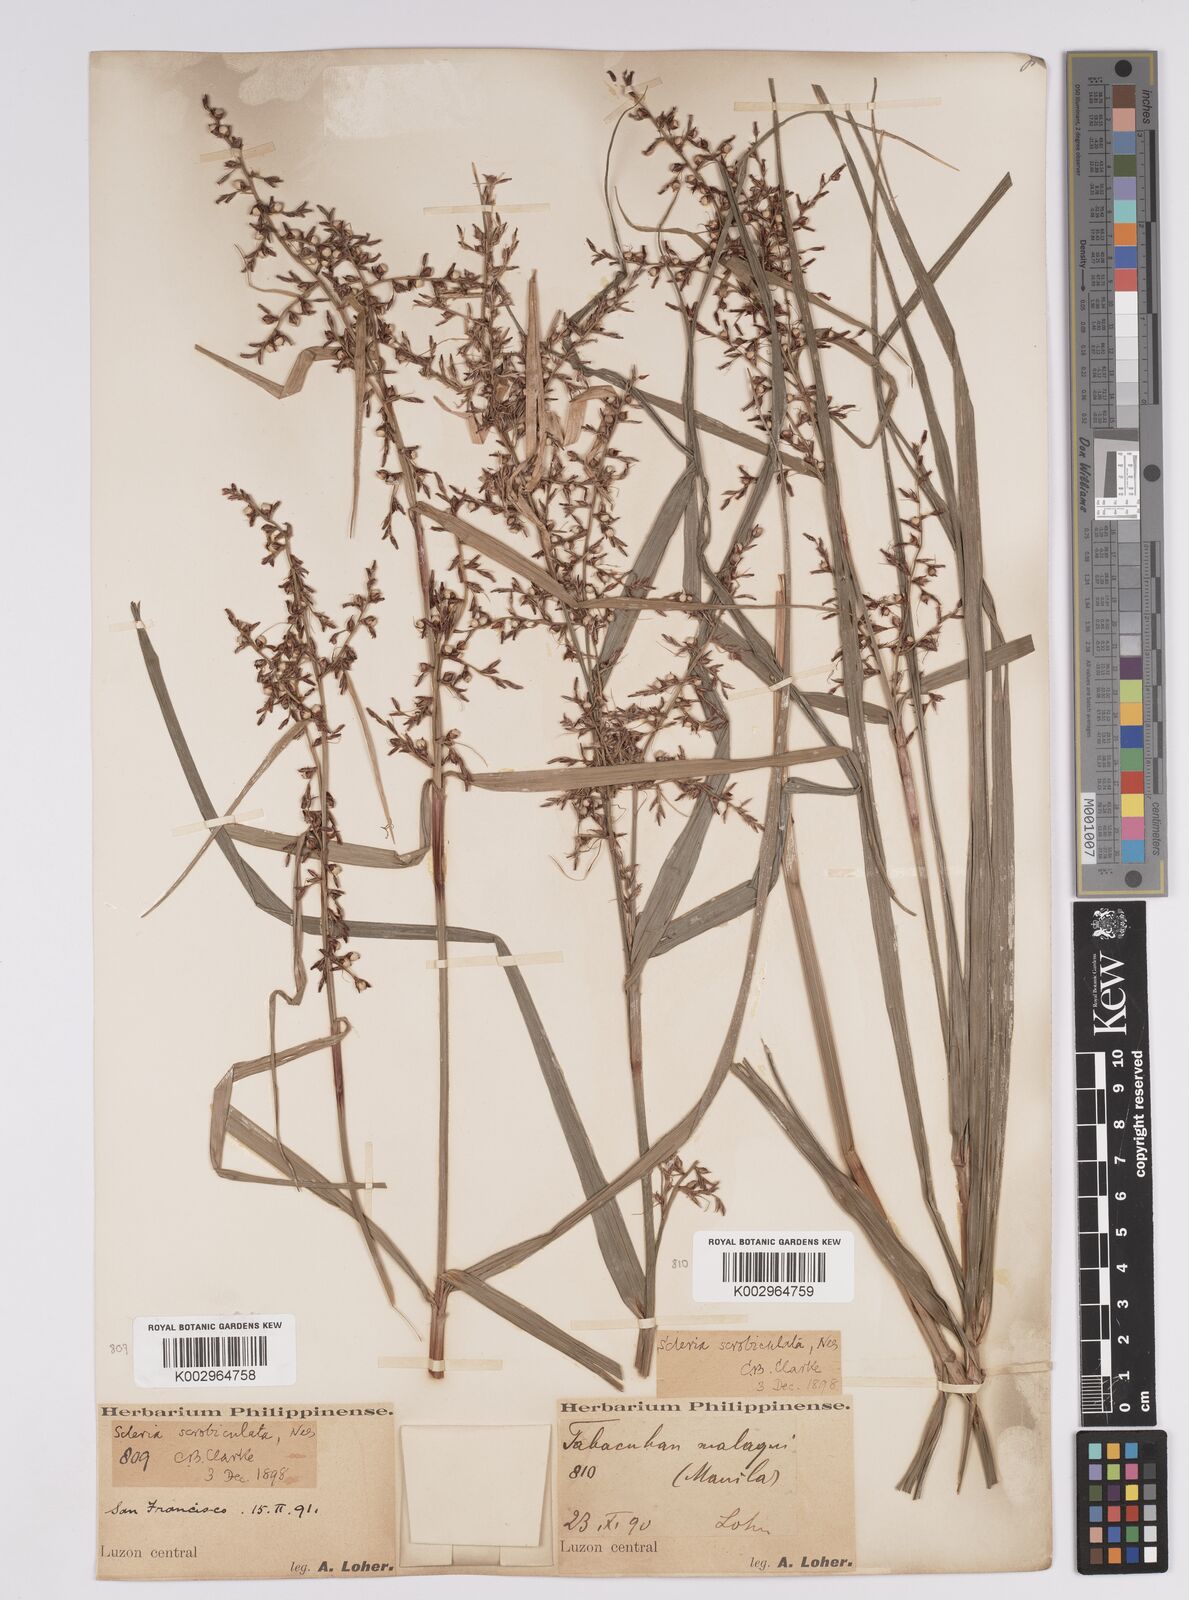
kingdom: Plantae
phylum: Tracheophyta
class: Liliopsida
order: Poales
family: Cyperaceae
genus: Scleria
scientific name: Scleria scrobiculata
